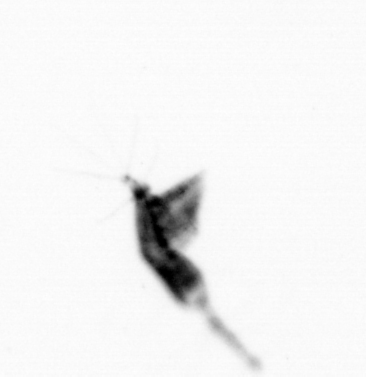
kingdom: Animalia
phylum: Arthropoda
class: Copepoda
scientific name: Copepoda
